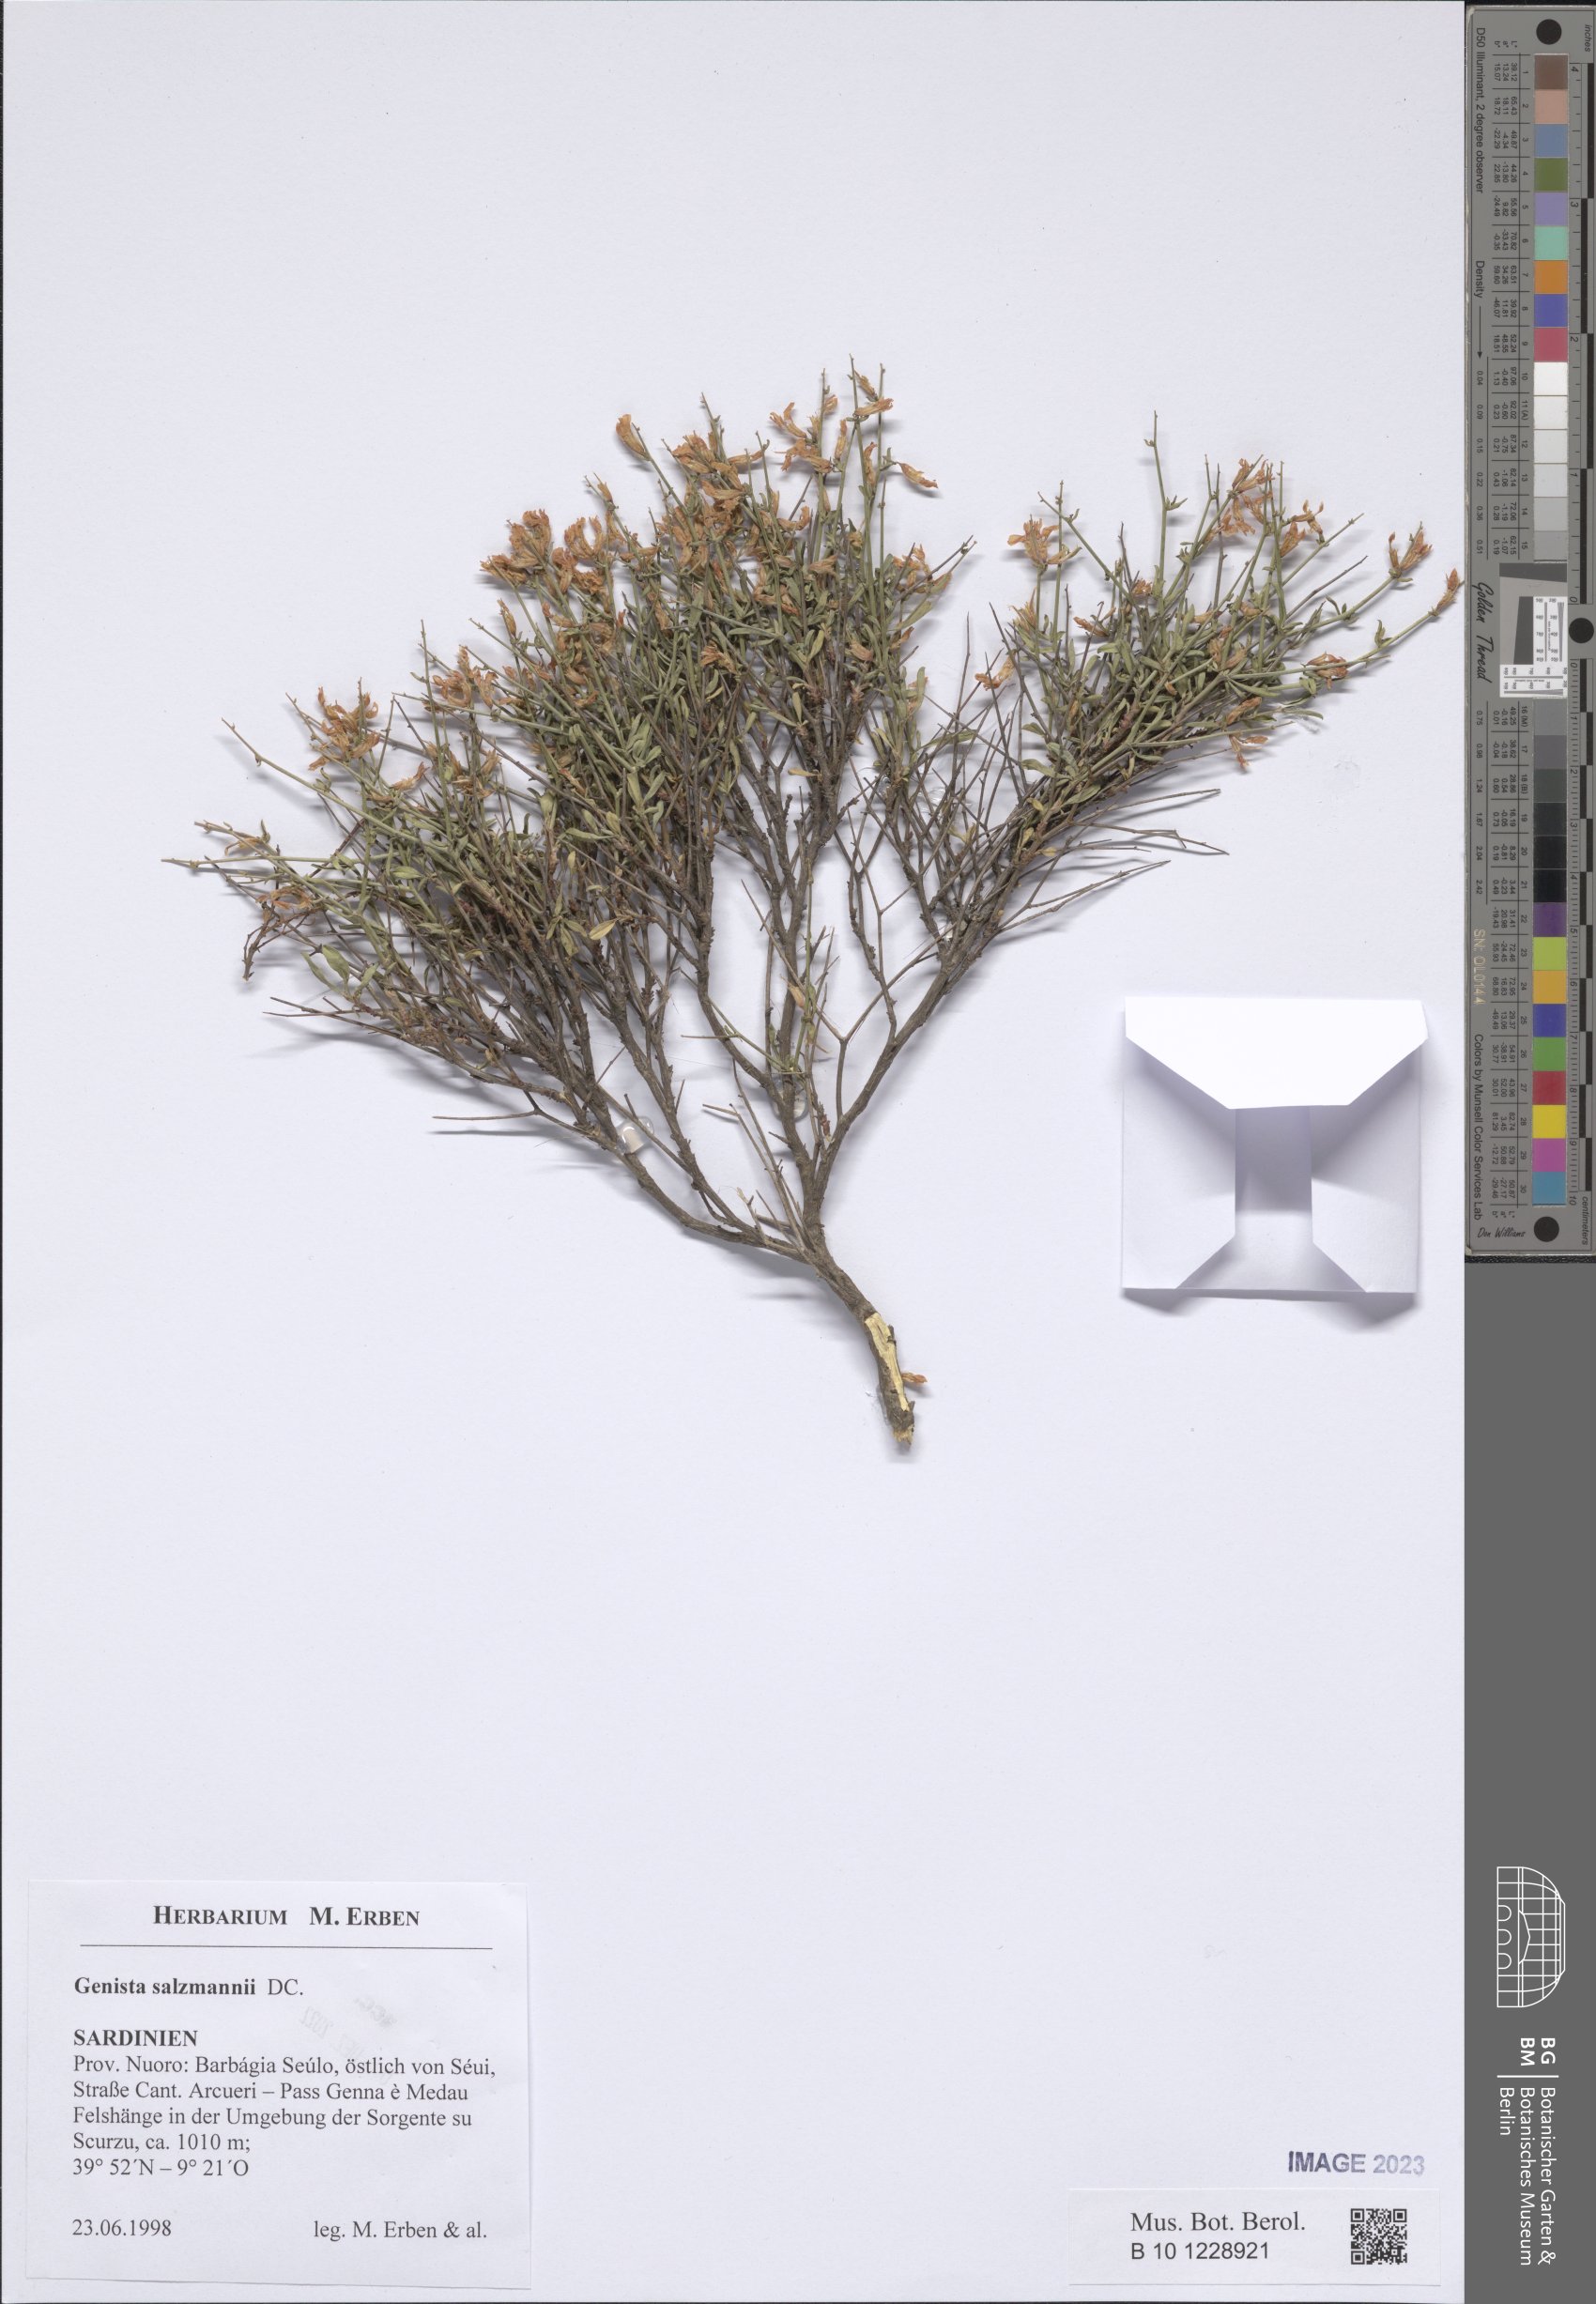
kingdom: Plantae
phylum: Tracheophyta
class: Magnoliopsida
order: Fabales
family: Fabaceae
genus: Genista
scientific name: Genista salzmannii
